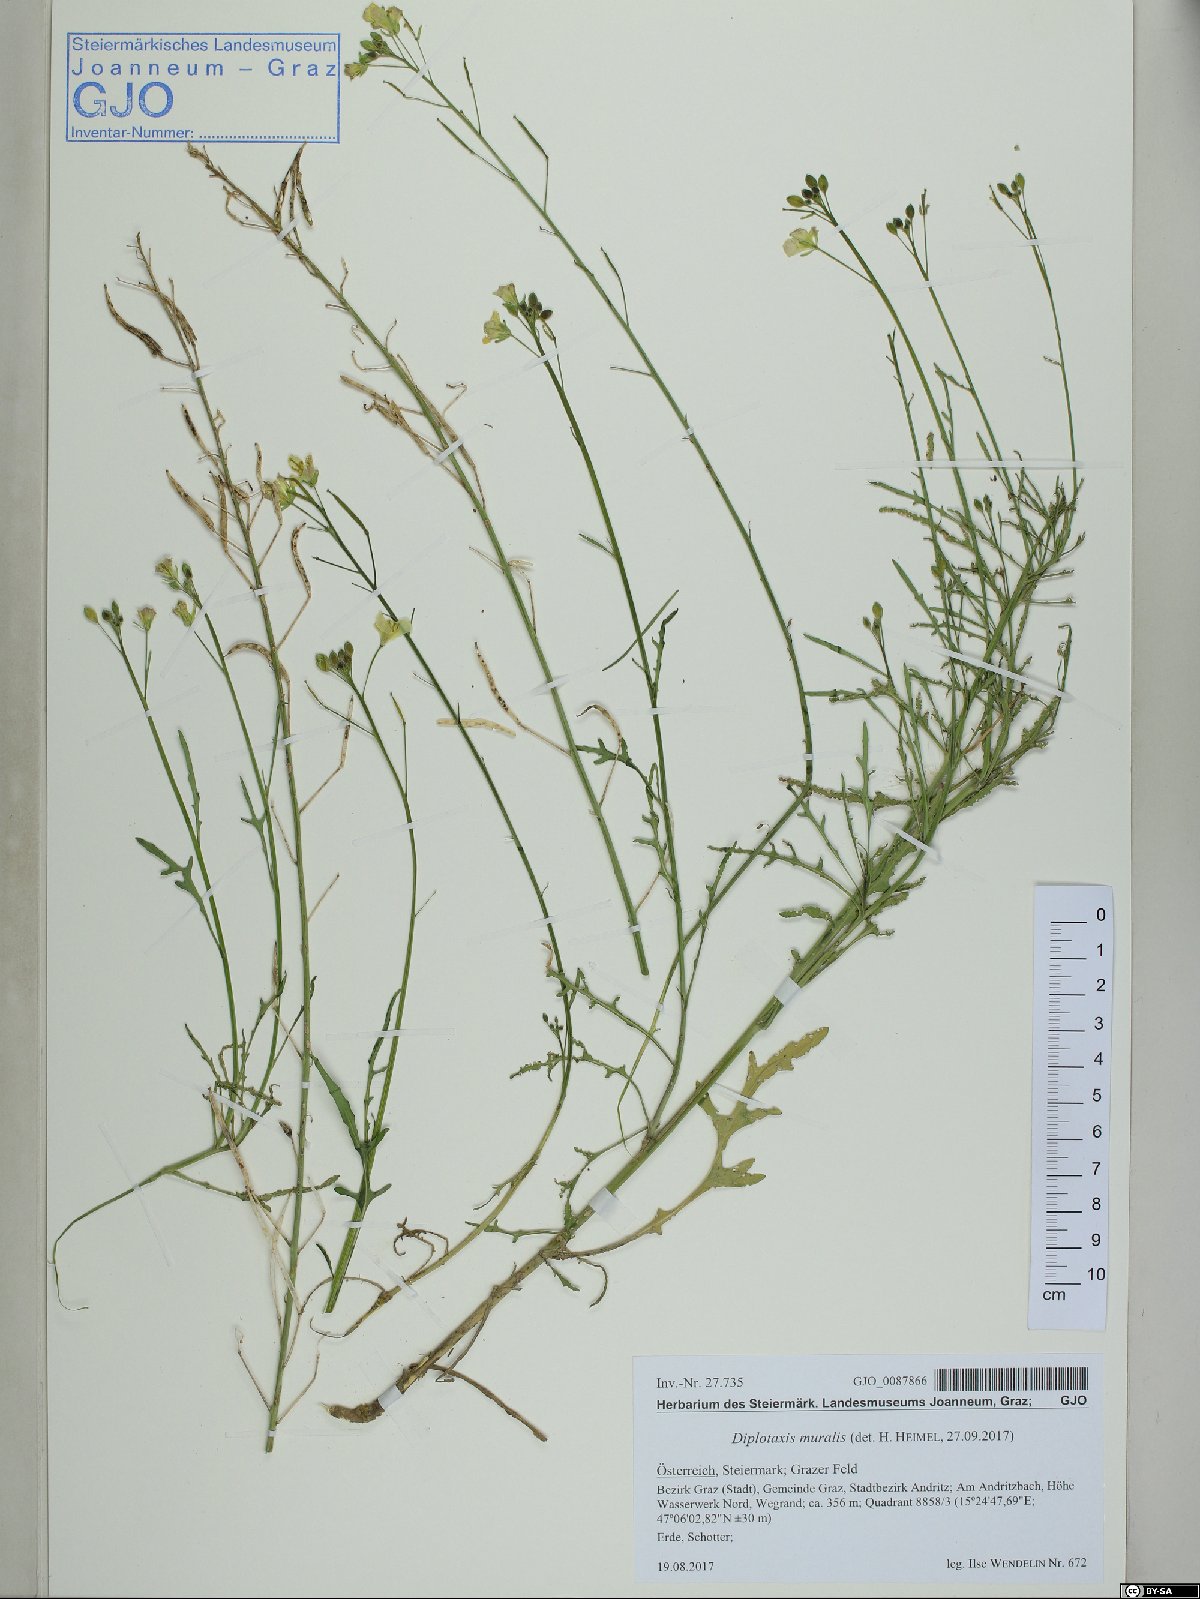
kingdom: Plantae
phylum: Tracheophyta
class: Magnoliopsida
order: Brassicales
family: Brassicaceae
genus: Diplotaxis
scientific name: Diplotaxis muralis
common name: Annual wall-rocket
